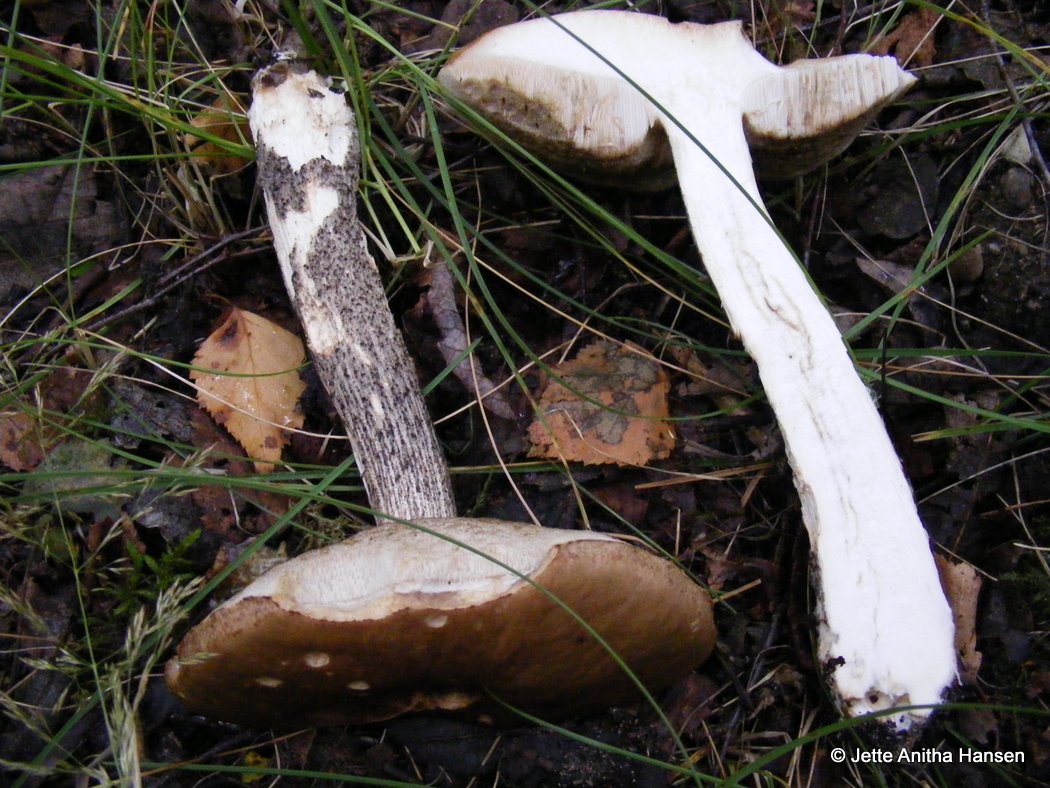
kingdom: Fungi
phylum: Basidiomycota
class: Agaricomycetes
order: Boletales
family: Boletaceae
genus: Leccinum
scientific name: Leccinum scabrum
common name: brun skælrørhat
